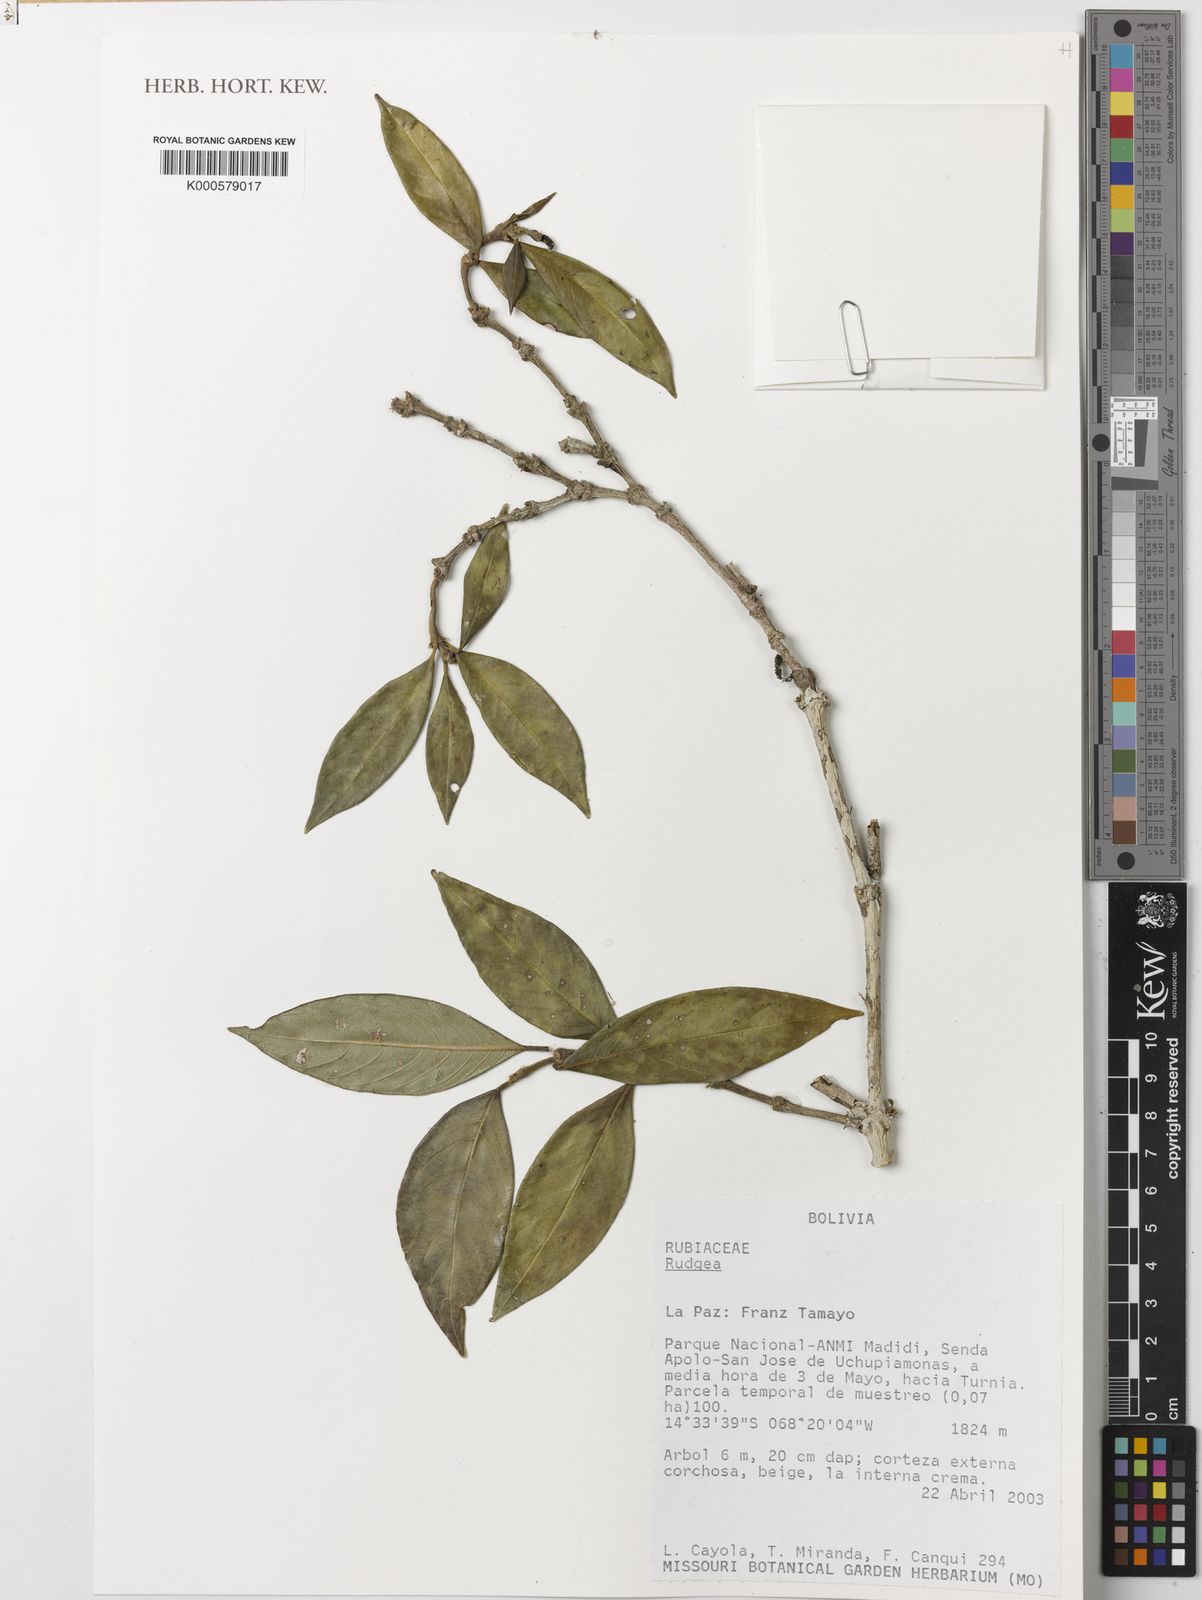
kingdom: Plantae
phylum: Tracheophyta
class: Magnoliopsida
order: Gentianales
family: Rubiaceae
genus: Rudgea
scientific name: Rudgea
